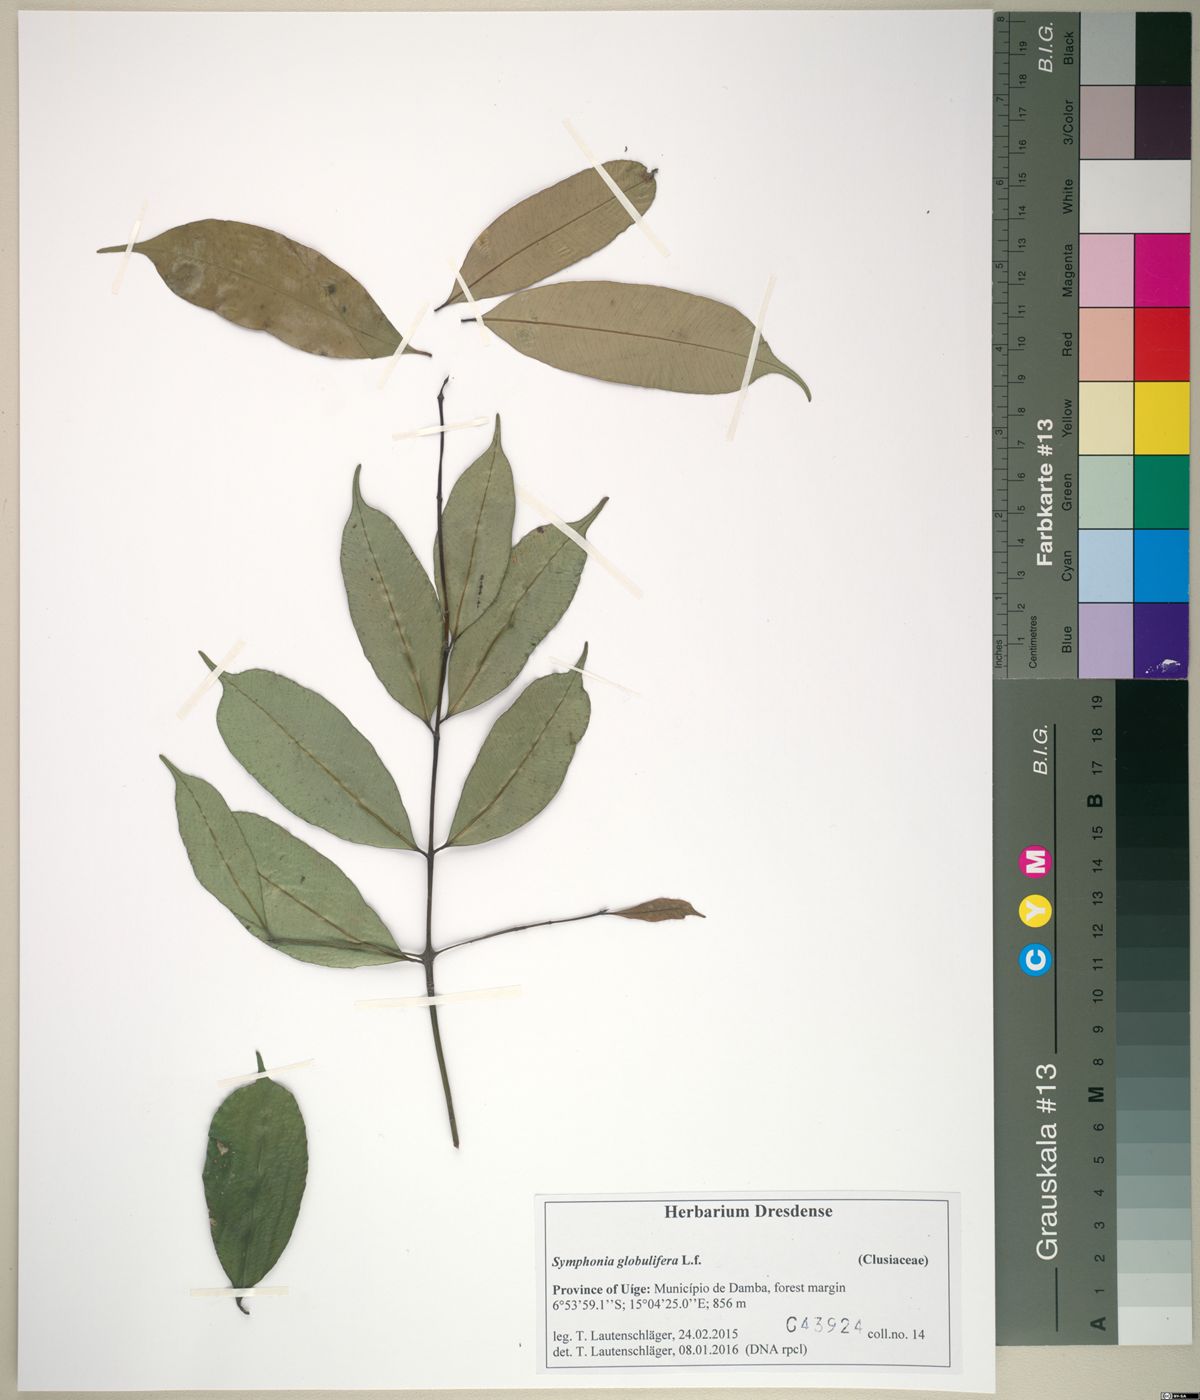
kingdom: Plantae
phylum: Tracheophyta
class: Magnoliopsida
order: Malpighiales
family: Clusiaceae
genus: Symphonia
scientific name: Symphonia globulifera
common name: Boarwood
